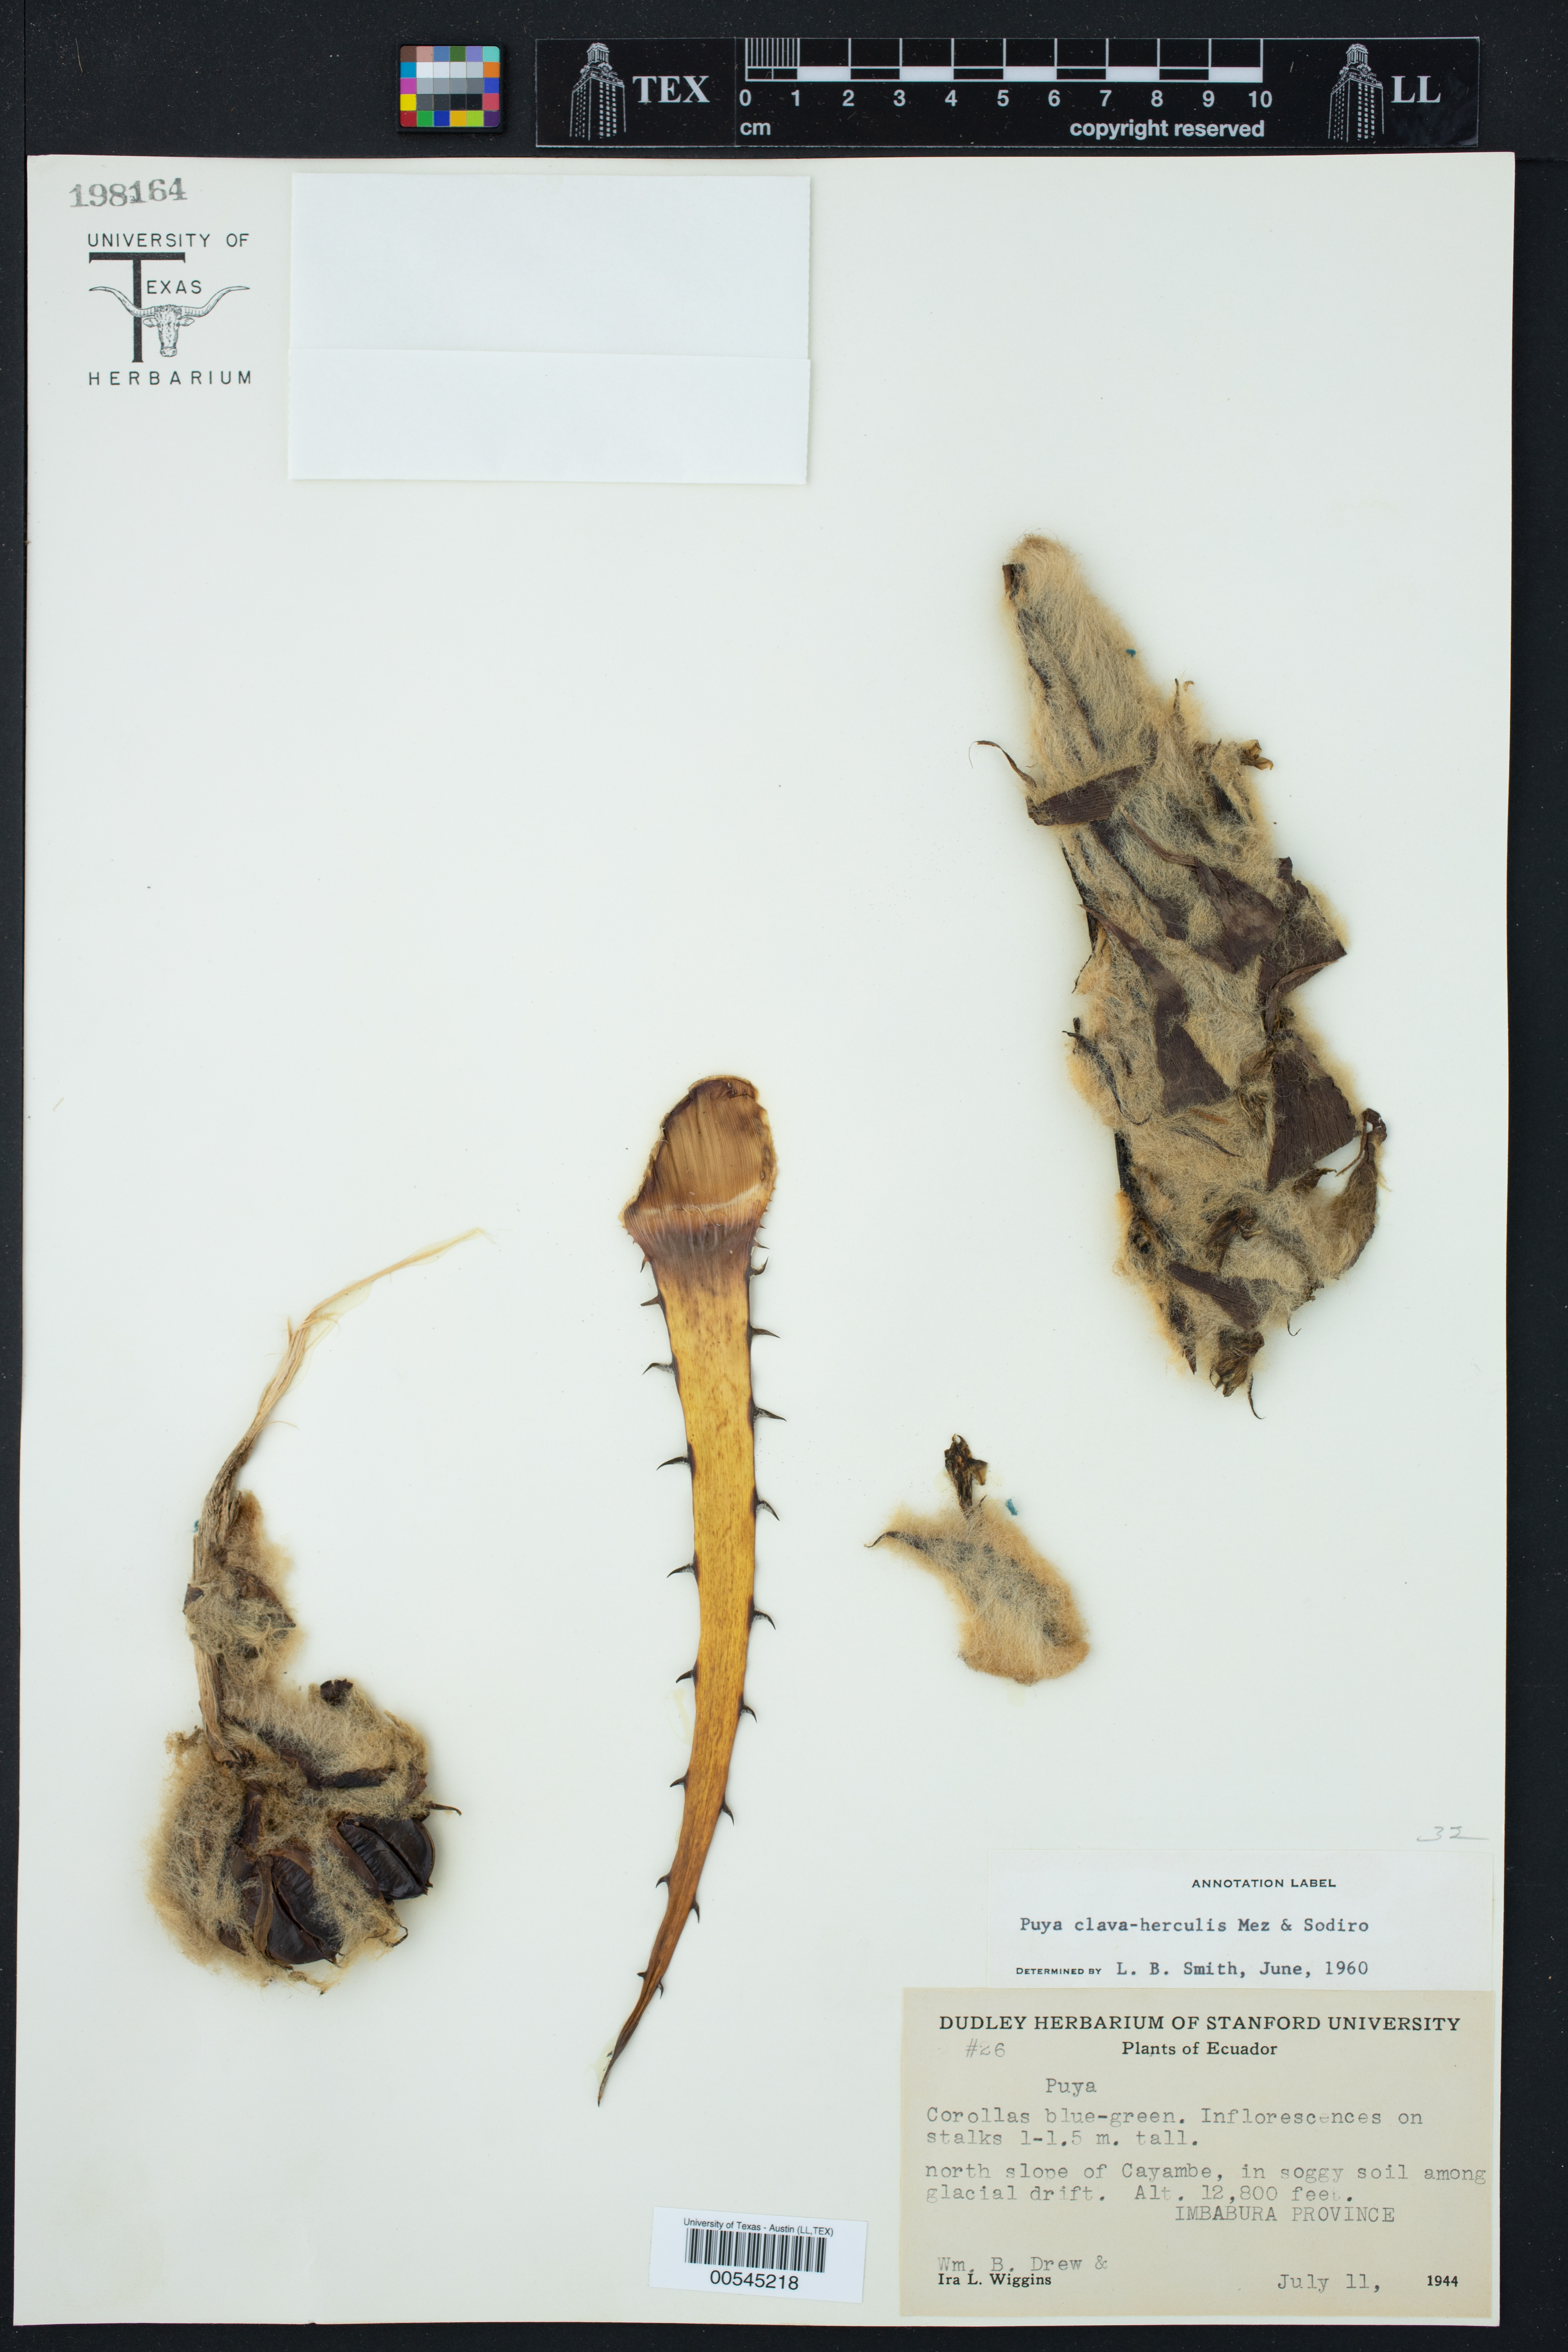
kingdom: Plantae
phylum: Tracheophyta
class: Liliopsida
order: Poales
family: Bromeliaceae
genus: Puya
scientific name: Puya clava-herculis
